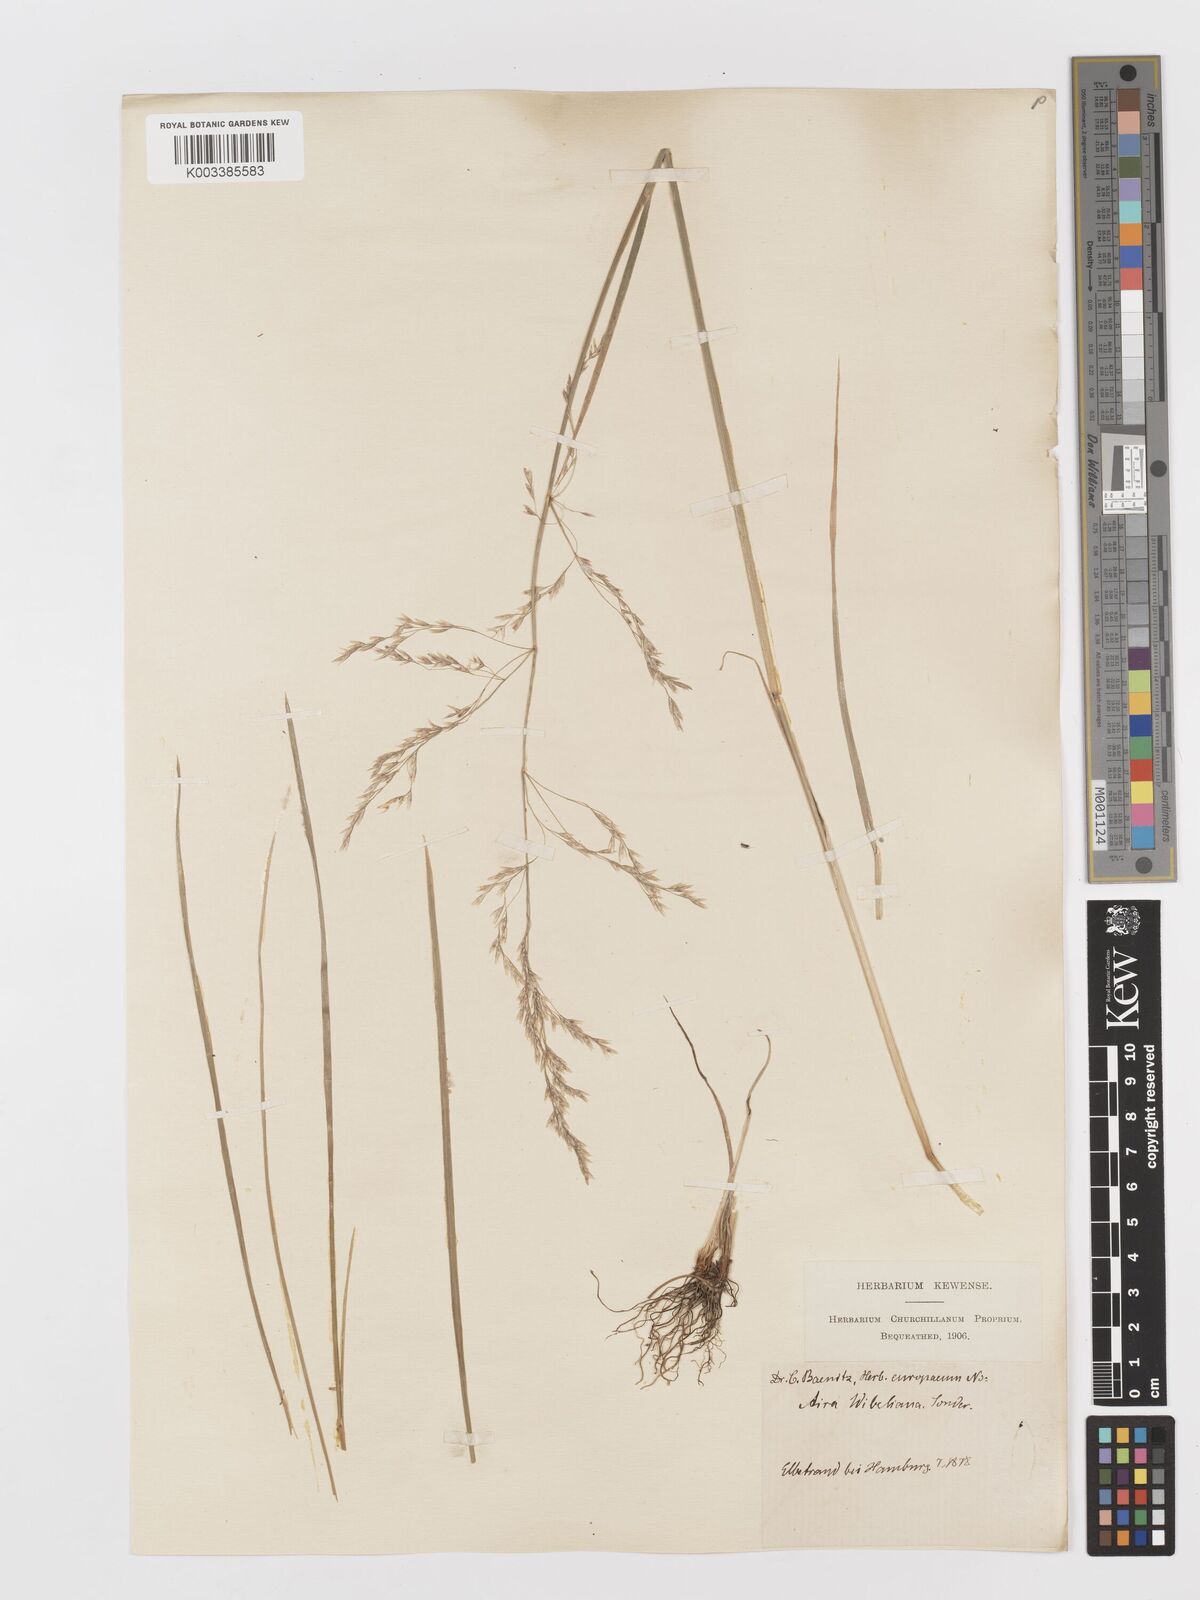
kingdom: Plantae
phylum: Tracheophyta
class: Liliopsida
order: Poales
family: Poaceae
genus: Deschampsia
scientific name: Deschampsia cespitosa
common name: Tufted hair-grass
